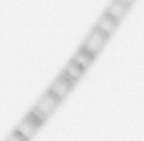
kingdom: Chromista
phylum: Ochrophyta
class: Bacillariophyceae
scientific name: Bacillariophyceae
